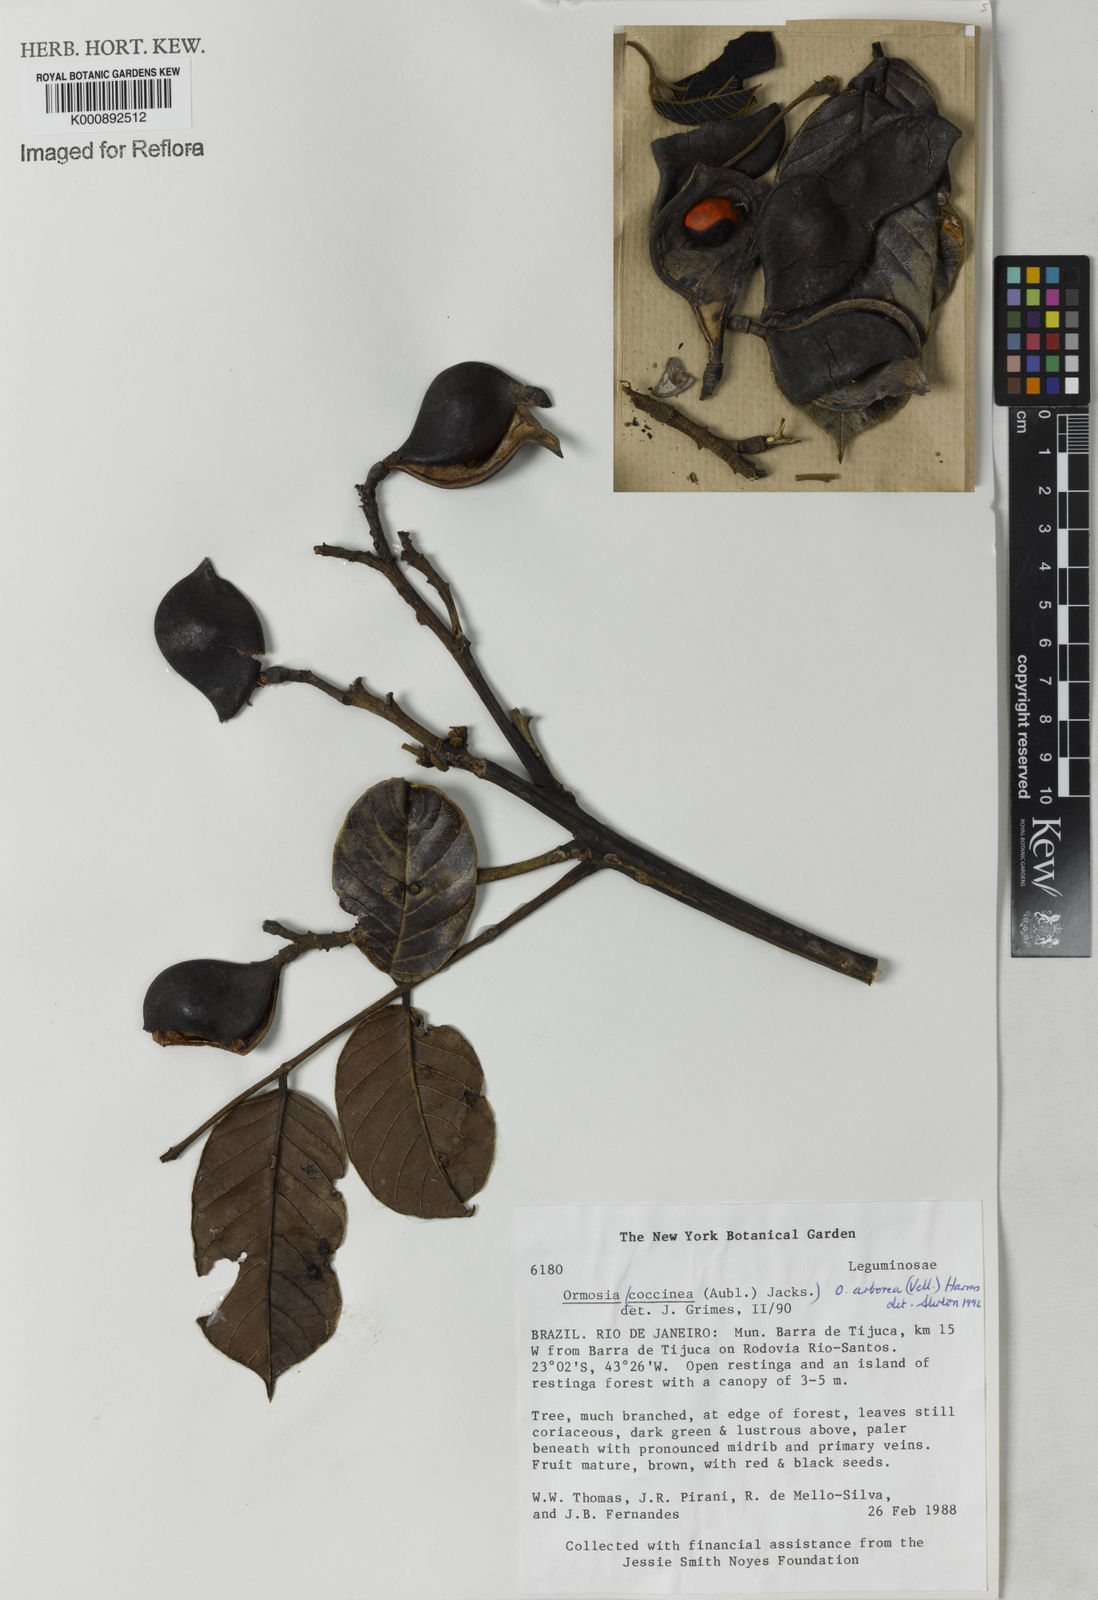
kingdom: Plantae
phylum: Tracheophyta
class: Magnoliopsida
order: Fabales
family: Fabaceae
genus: Ormosia
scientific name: Ormosia arborea
